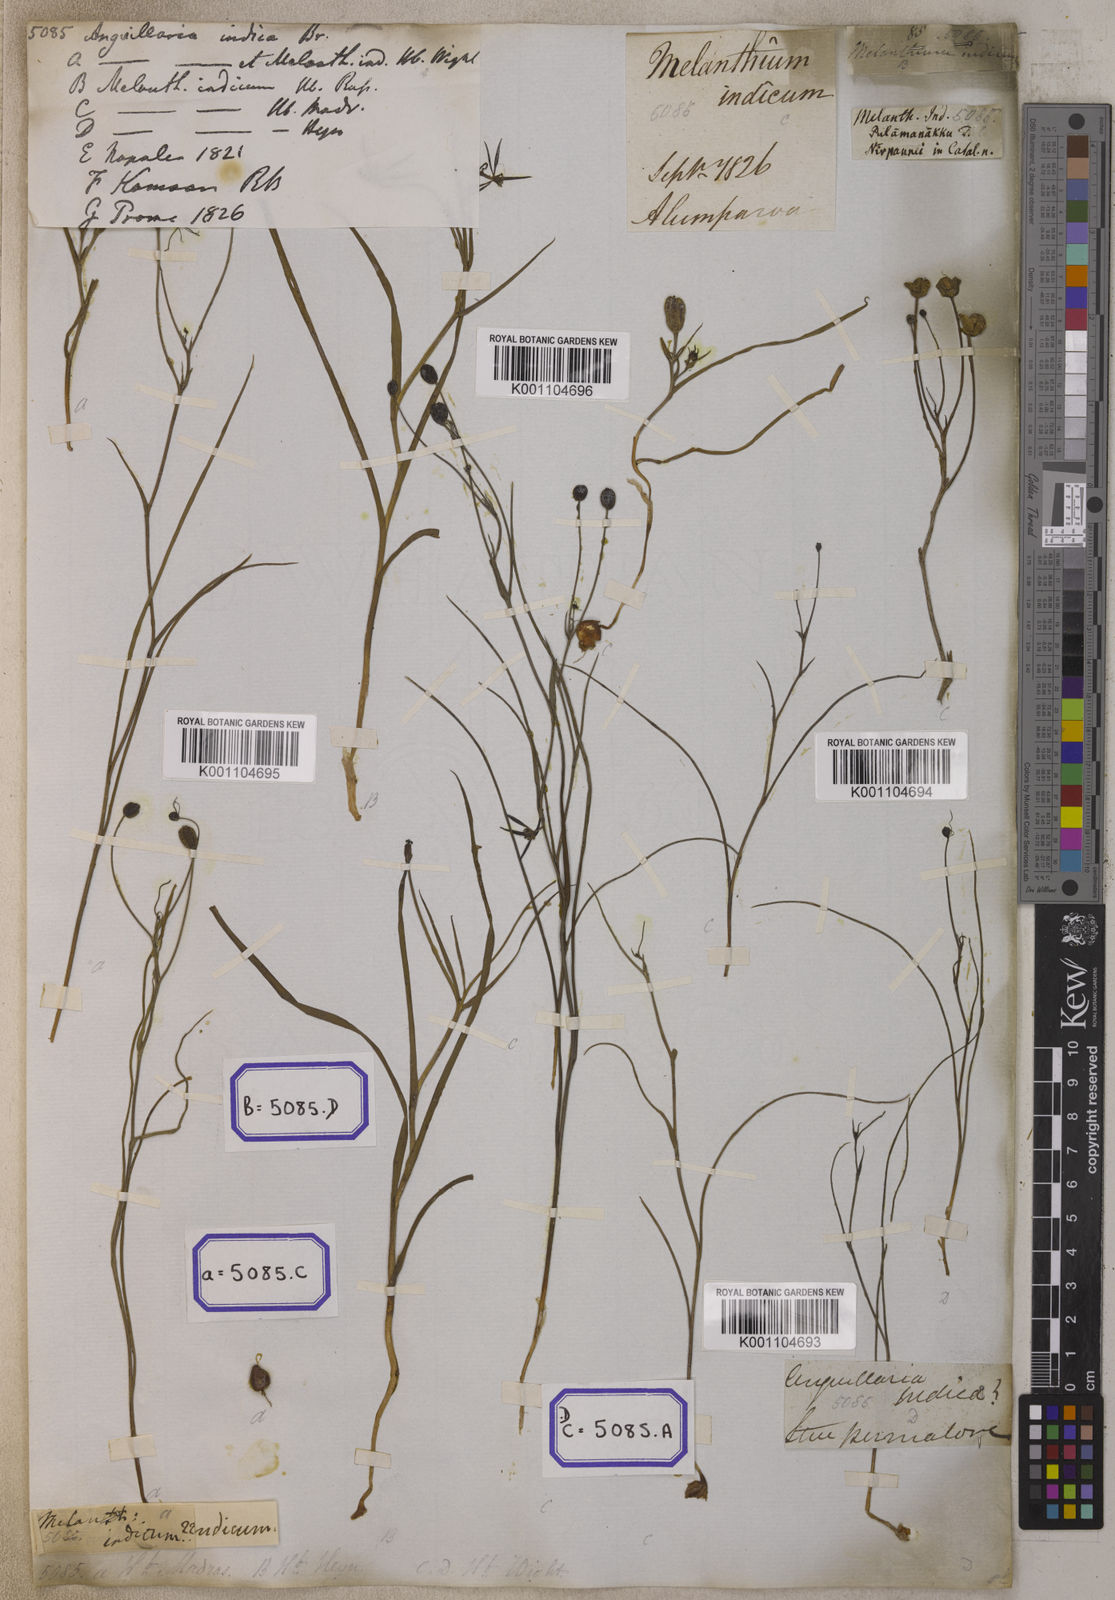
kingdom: Plantae
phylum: Tracheophyta
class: Liliopsida
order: Liliales
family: Colchicaceae
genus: Iphigenia
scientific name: Iphigenia indica
